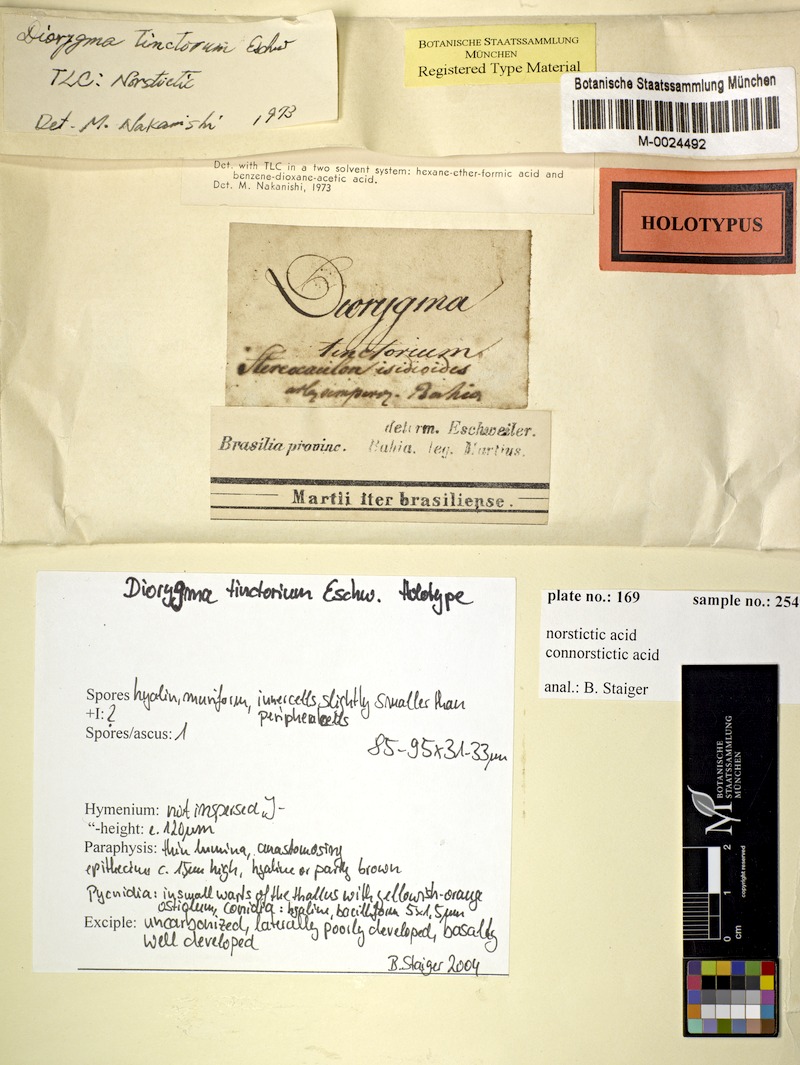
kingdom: Fungi
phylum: Ascomycota
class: Lecanoromycetes
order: Ostropales
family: Graphidaceae
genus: Diorygma
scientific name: Diorygma tinctorium
